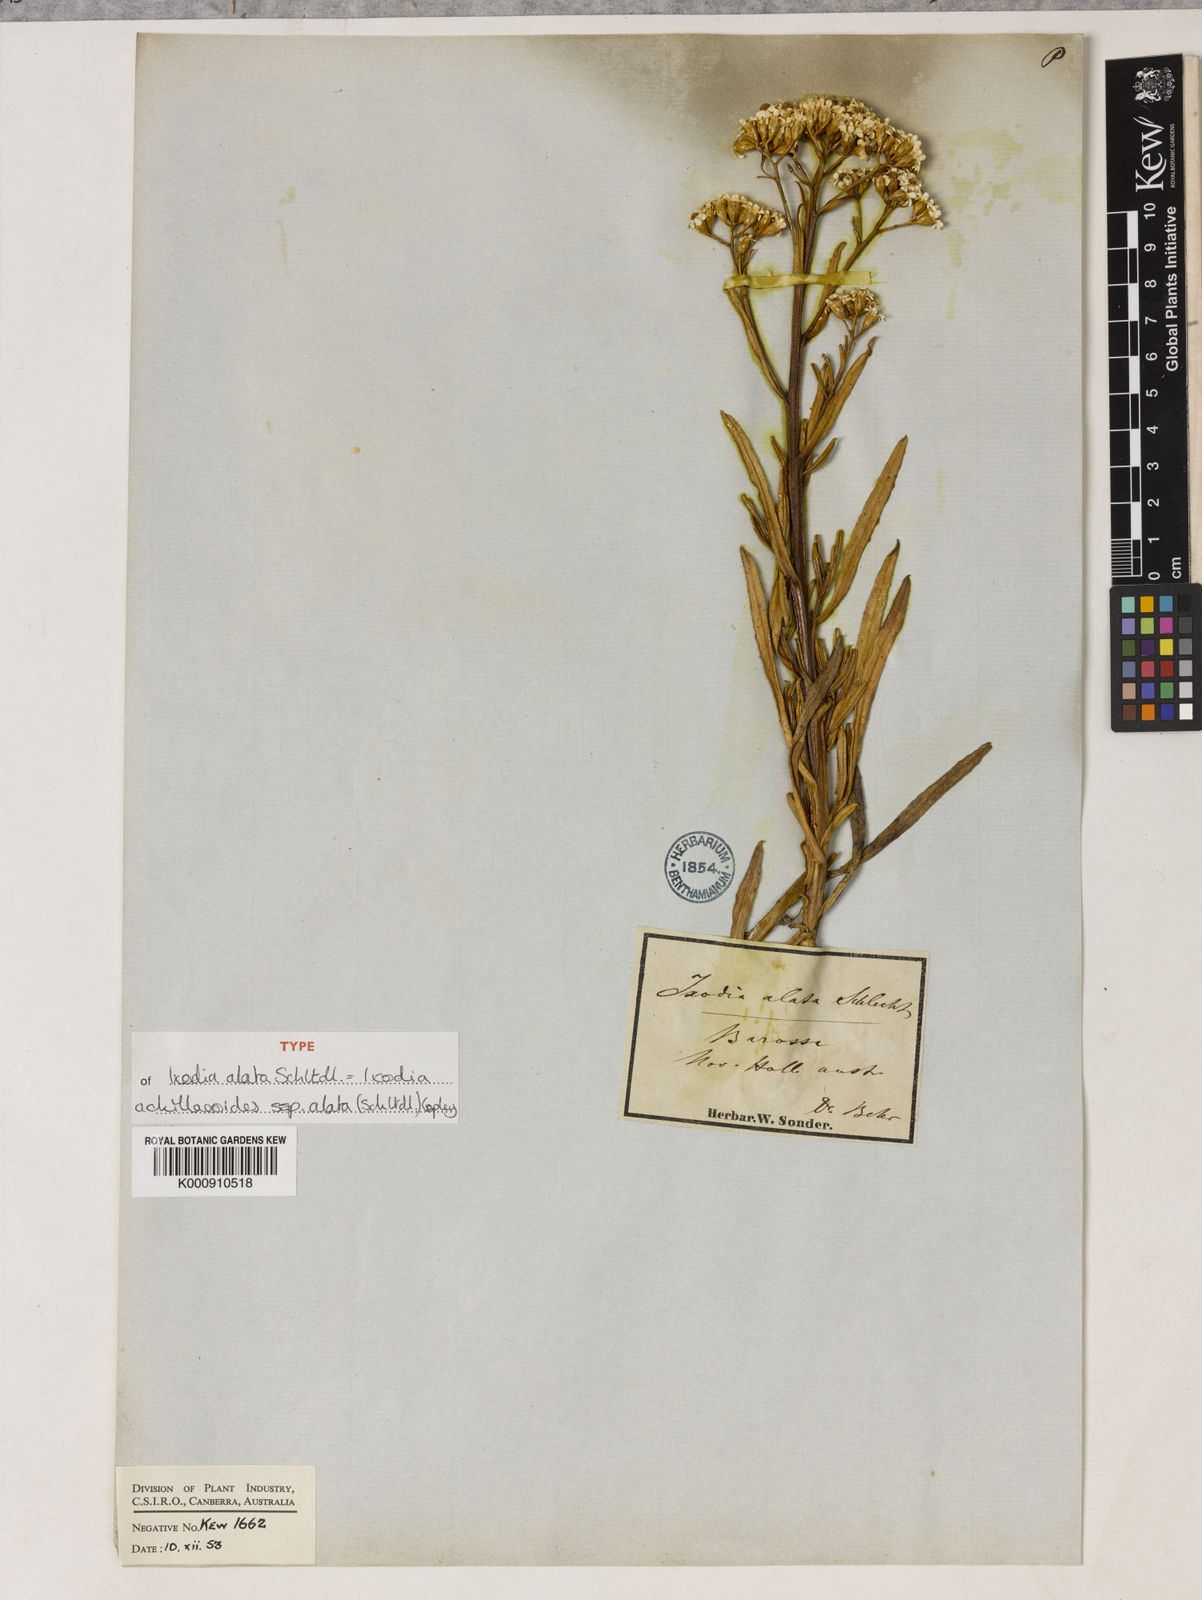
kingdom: Plantae
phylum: Tracheophyta
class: Magnoliopsida
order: Asterales
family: Asteraceae
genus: Ixodia
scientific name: Ixodia achilleoides
